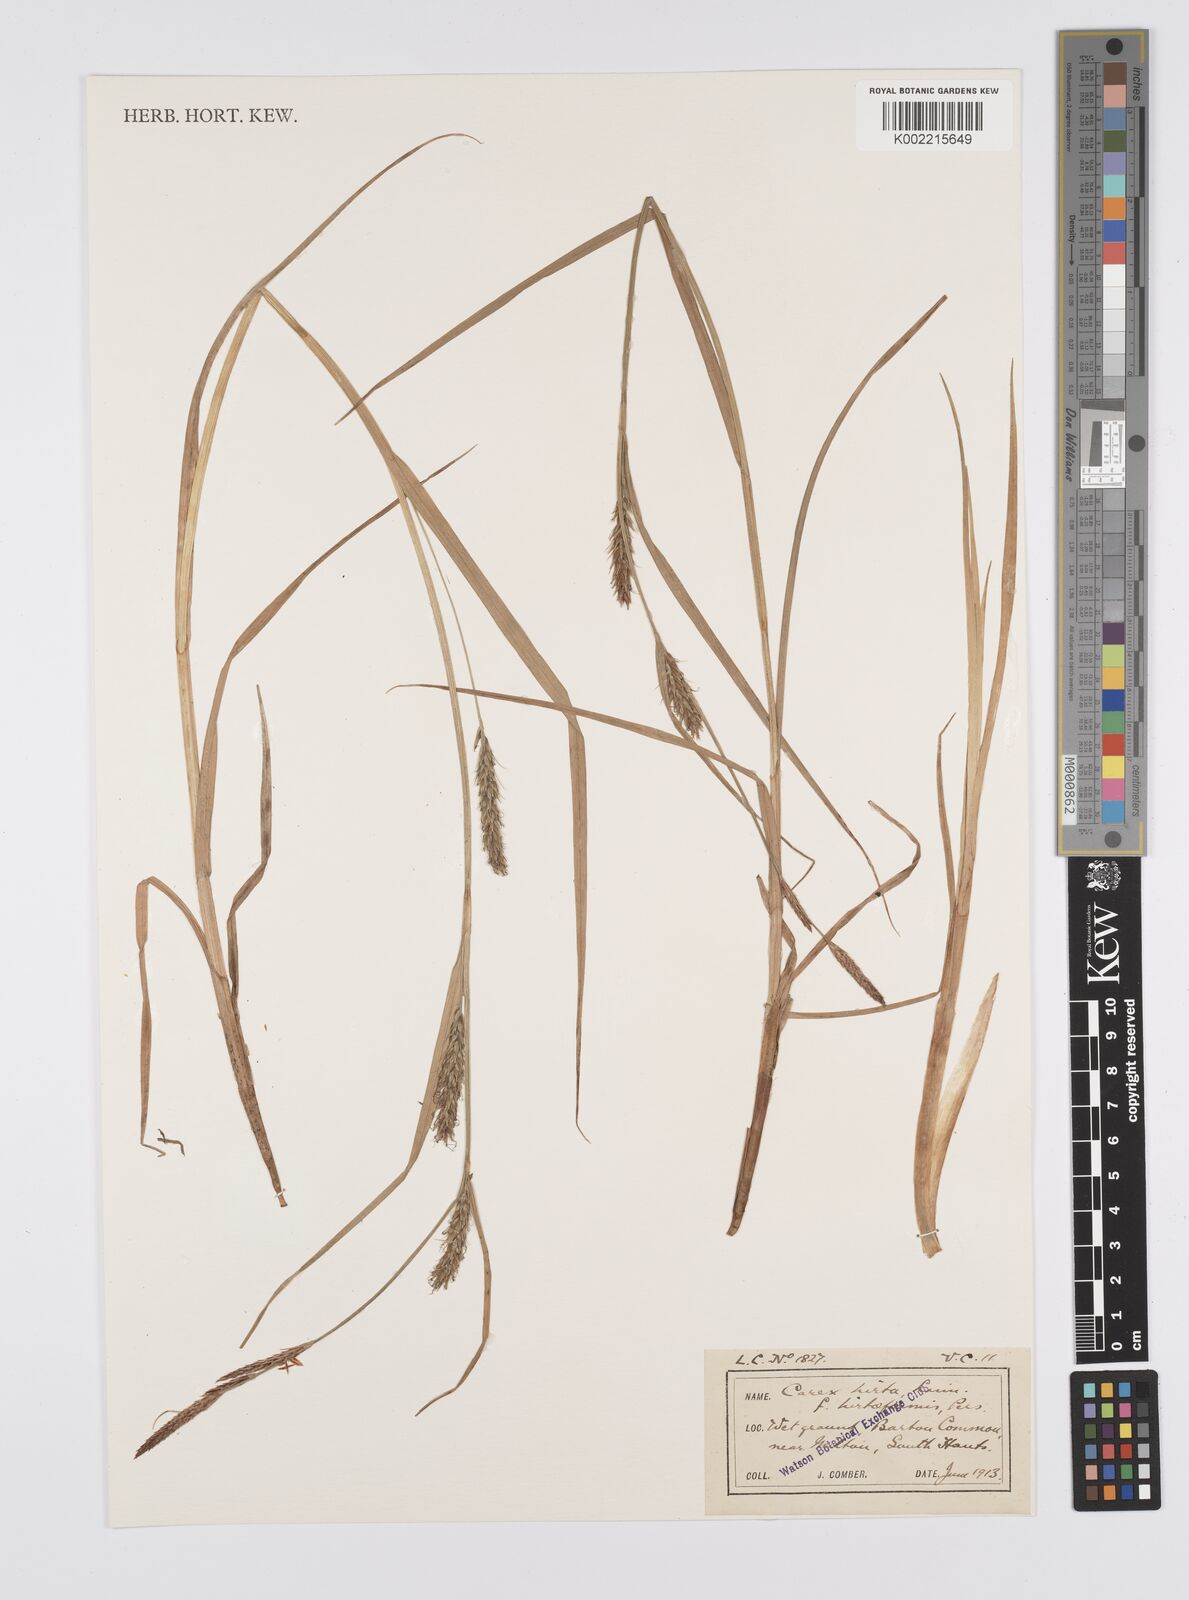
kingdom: Plantae
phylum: Tracheophyta
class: Liliopsida
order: Poales
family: Cyperaceae
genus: Carex
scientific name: Carex hirta
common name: Hairy sedge
